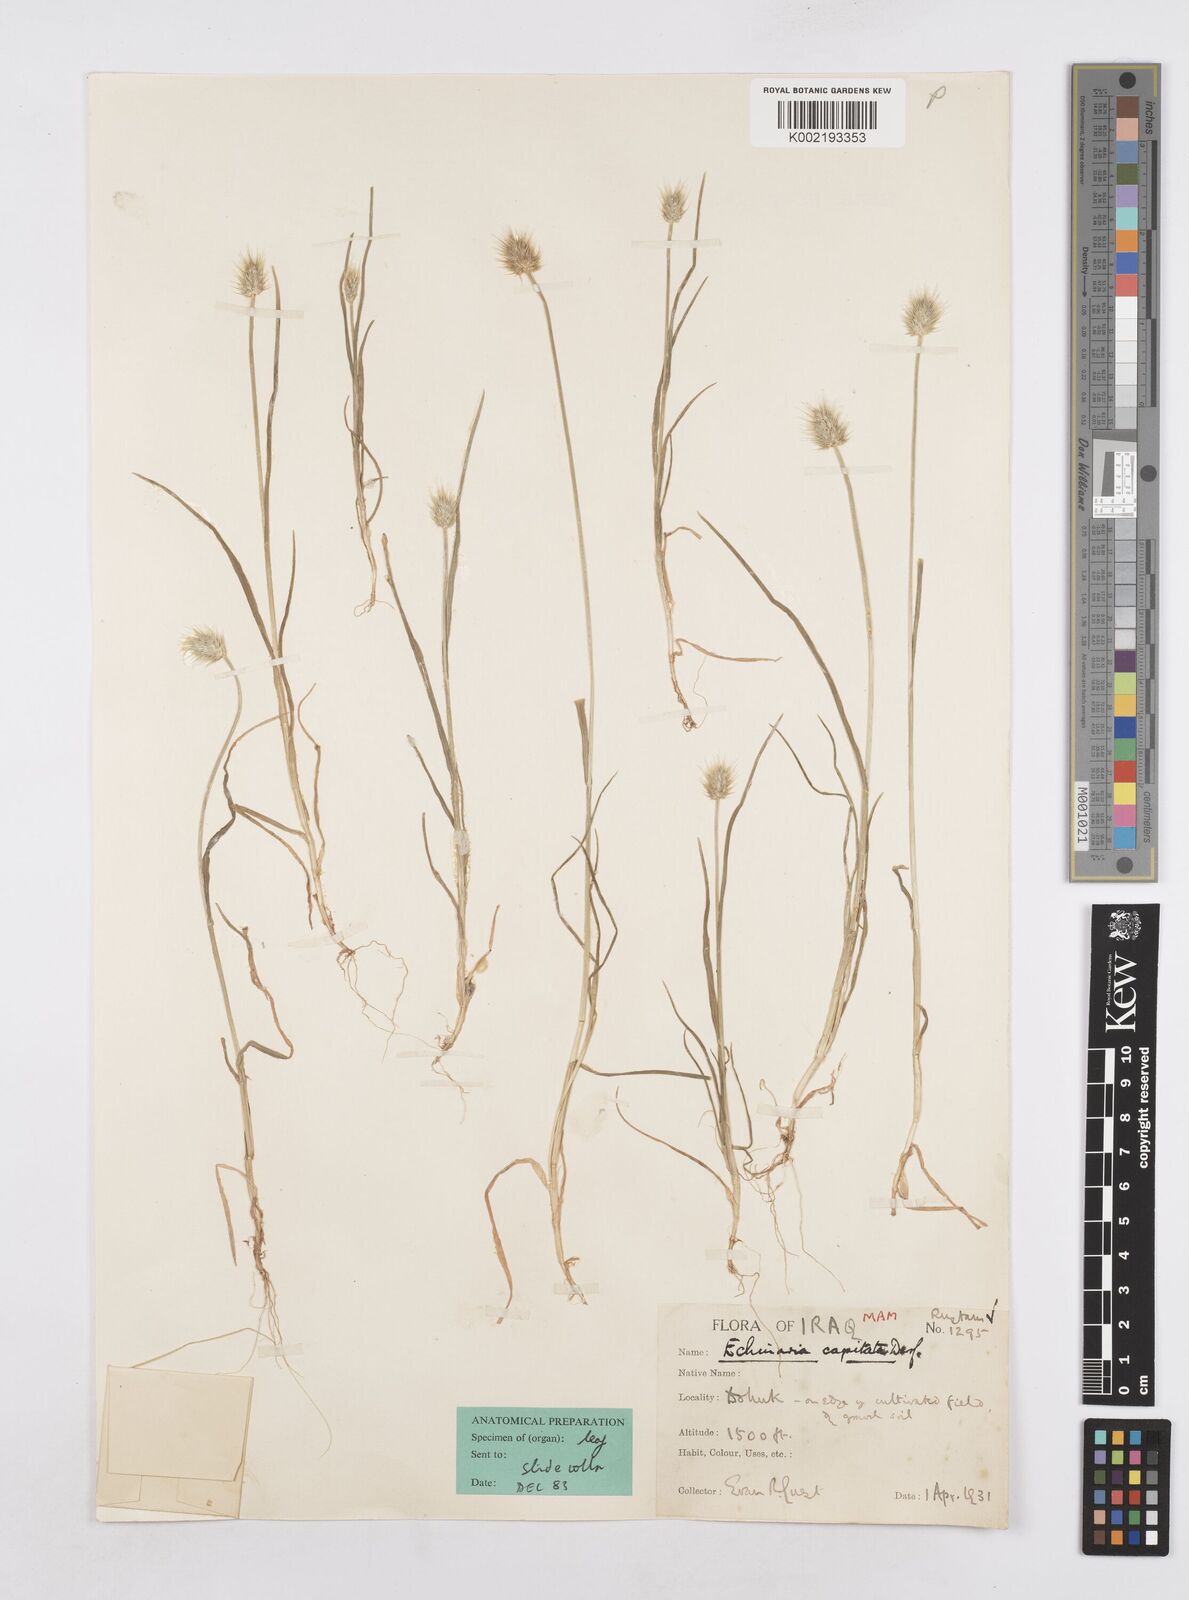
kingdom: Plantae
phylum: Tracheophyta
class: Liliopsida
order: Poales
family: Poaceae
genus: Echinaria
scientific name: Echinaria capitata
